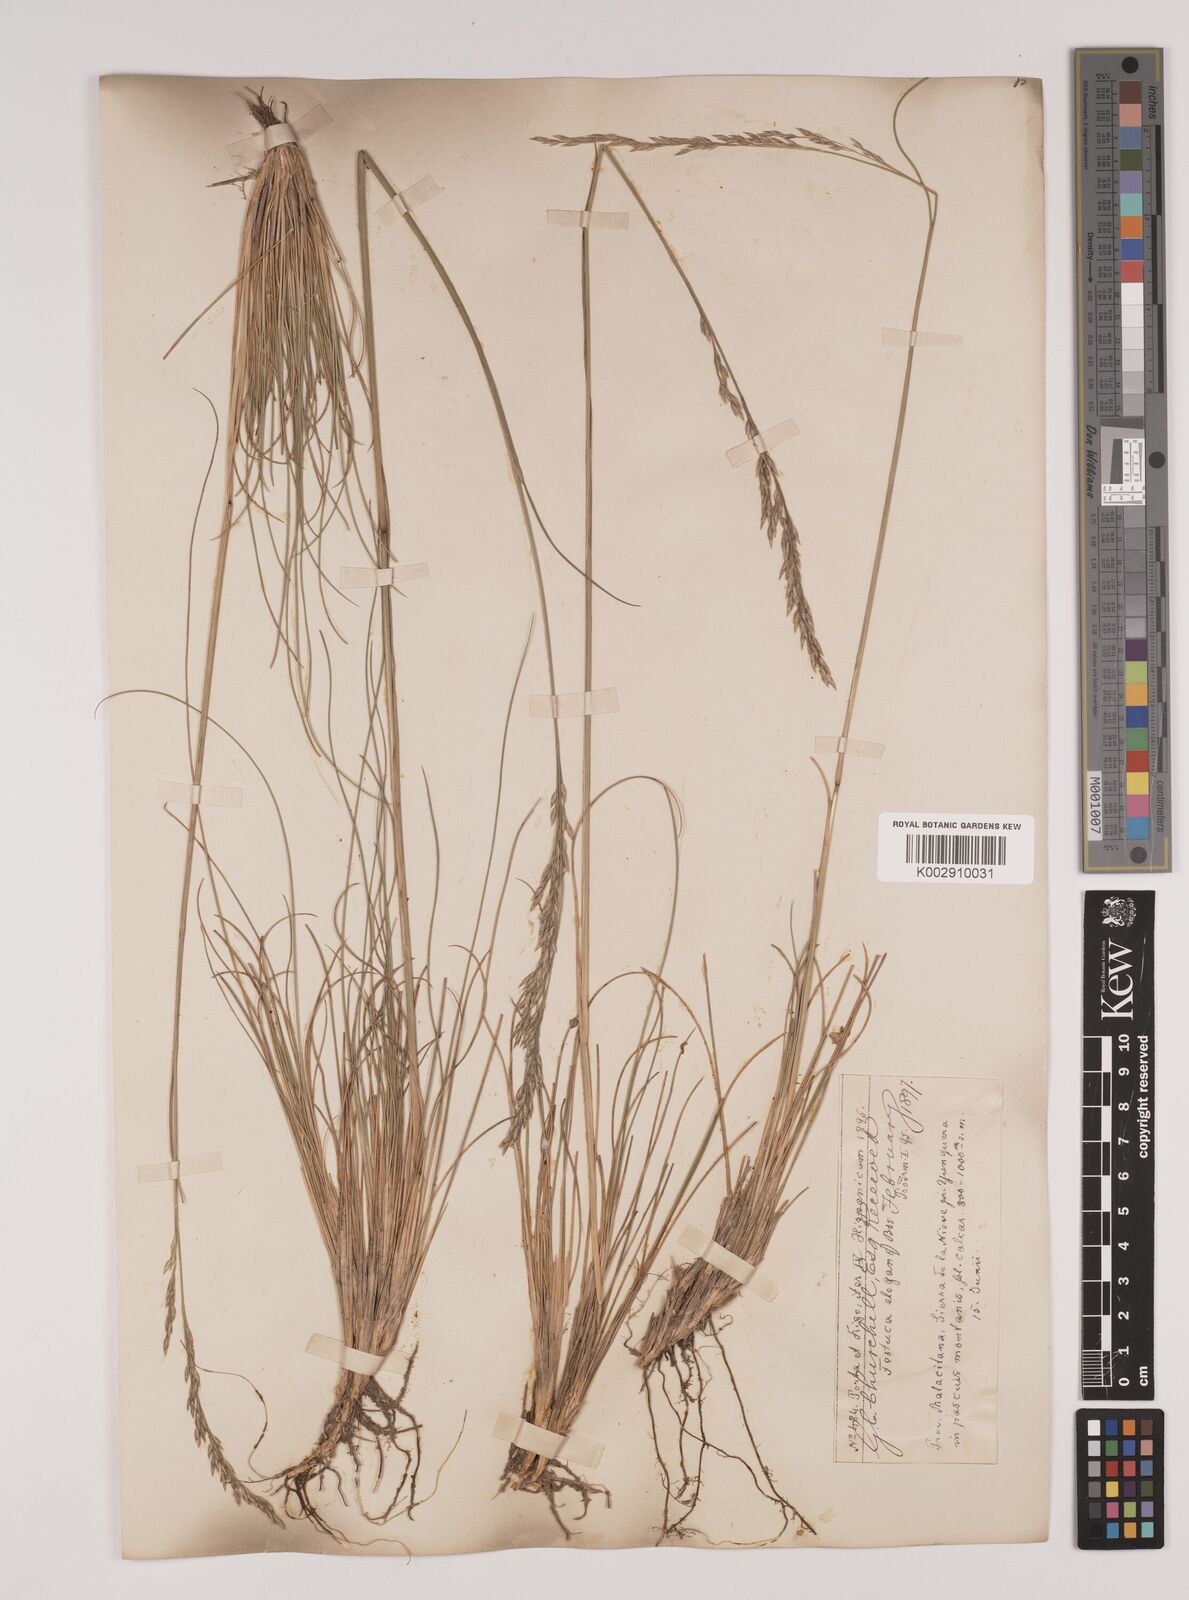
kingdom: Plantae
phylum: Tracheophyta
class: Liliopsida
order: Poales
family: Poaceae
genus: Festuca
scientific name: Festuca elegans
